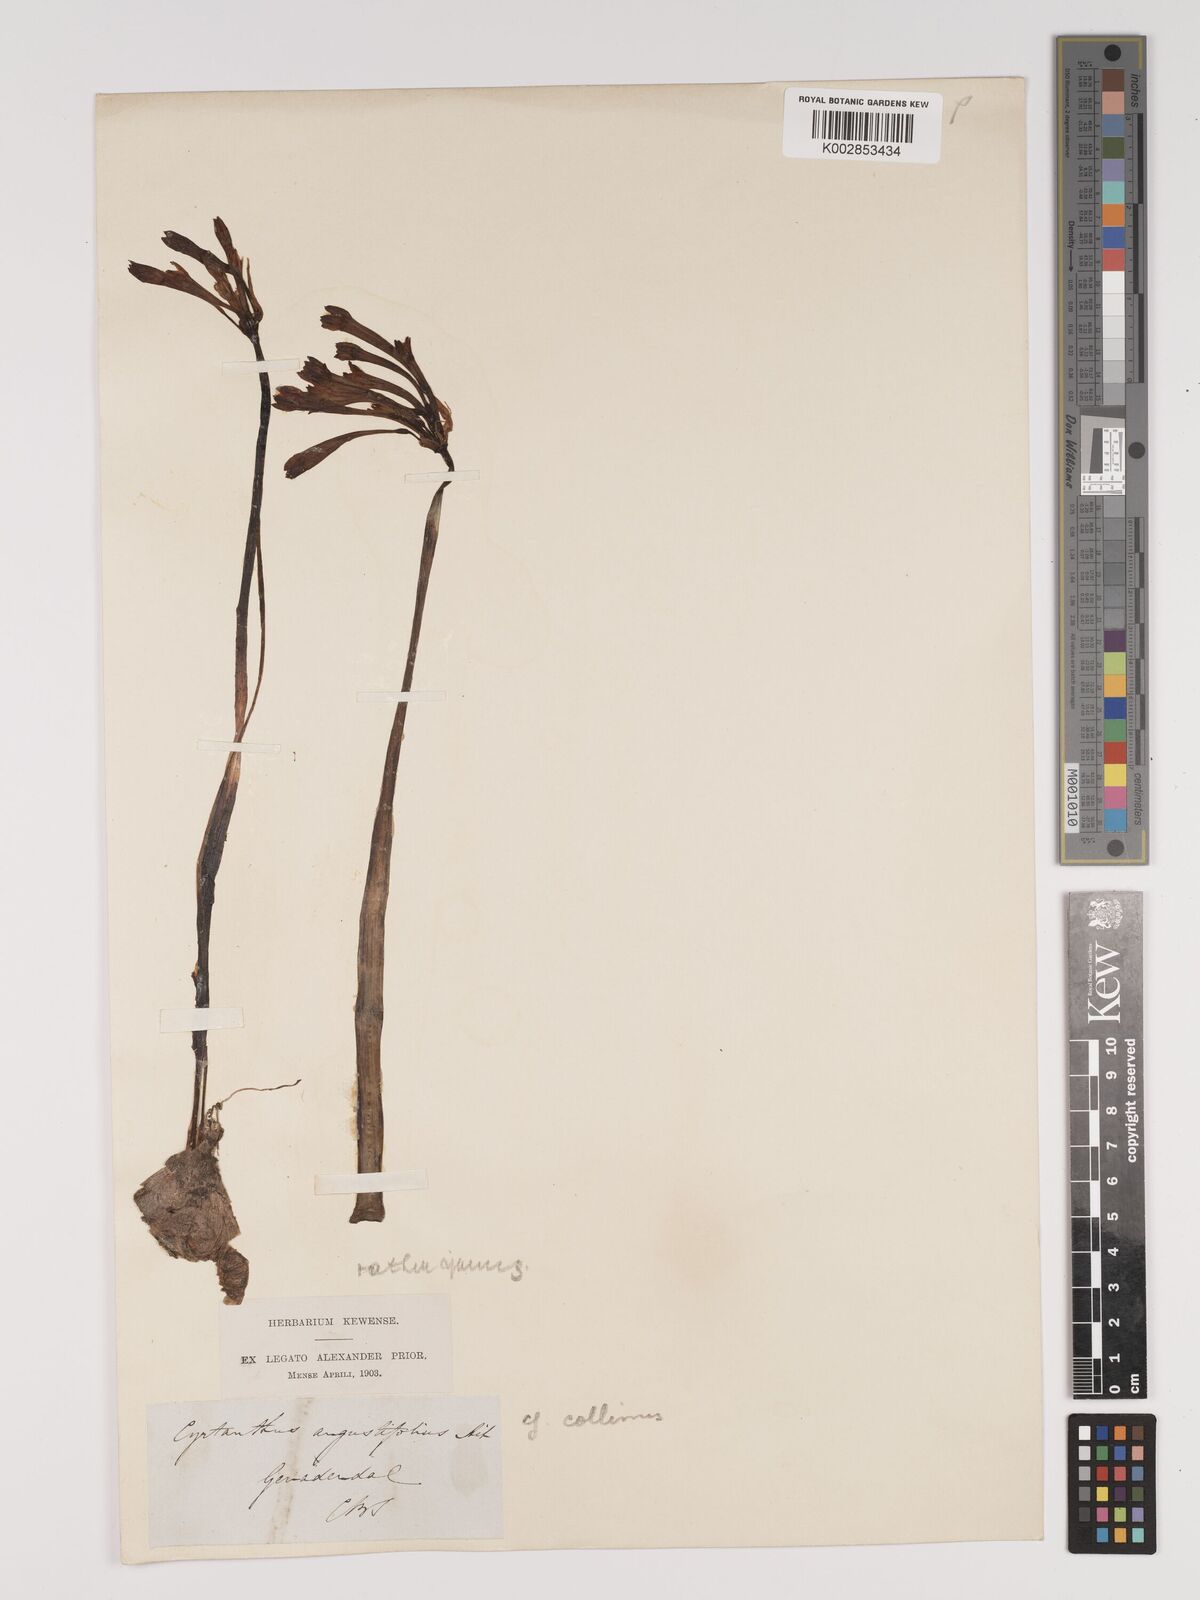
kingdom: Plantae
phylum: Tracheophyta
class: Liliopsida
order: Asparagales
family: Amaryllidaceae
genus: Cyrtanthus
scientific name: Cyrtanthus collinus
